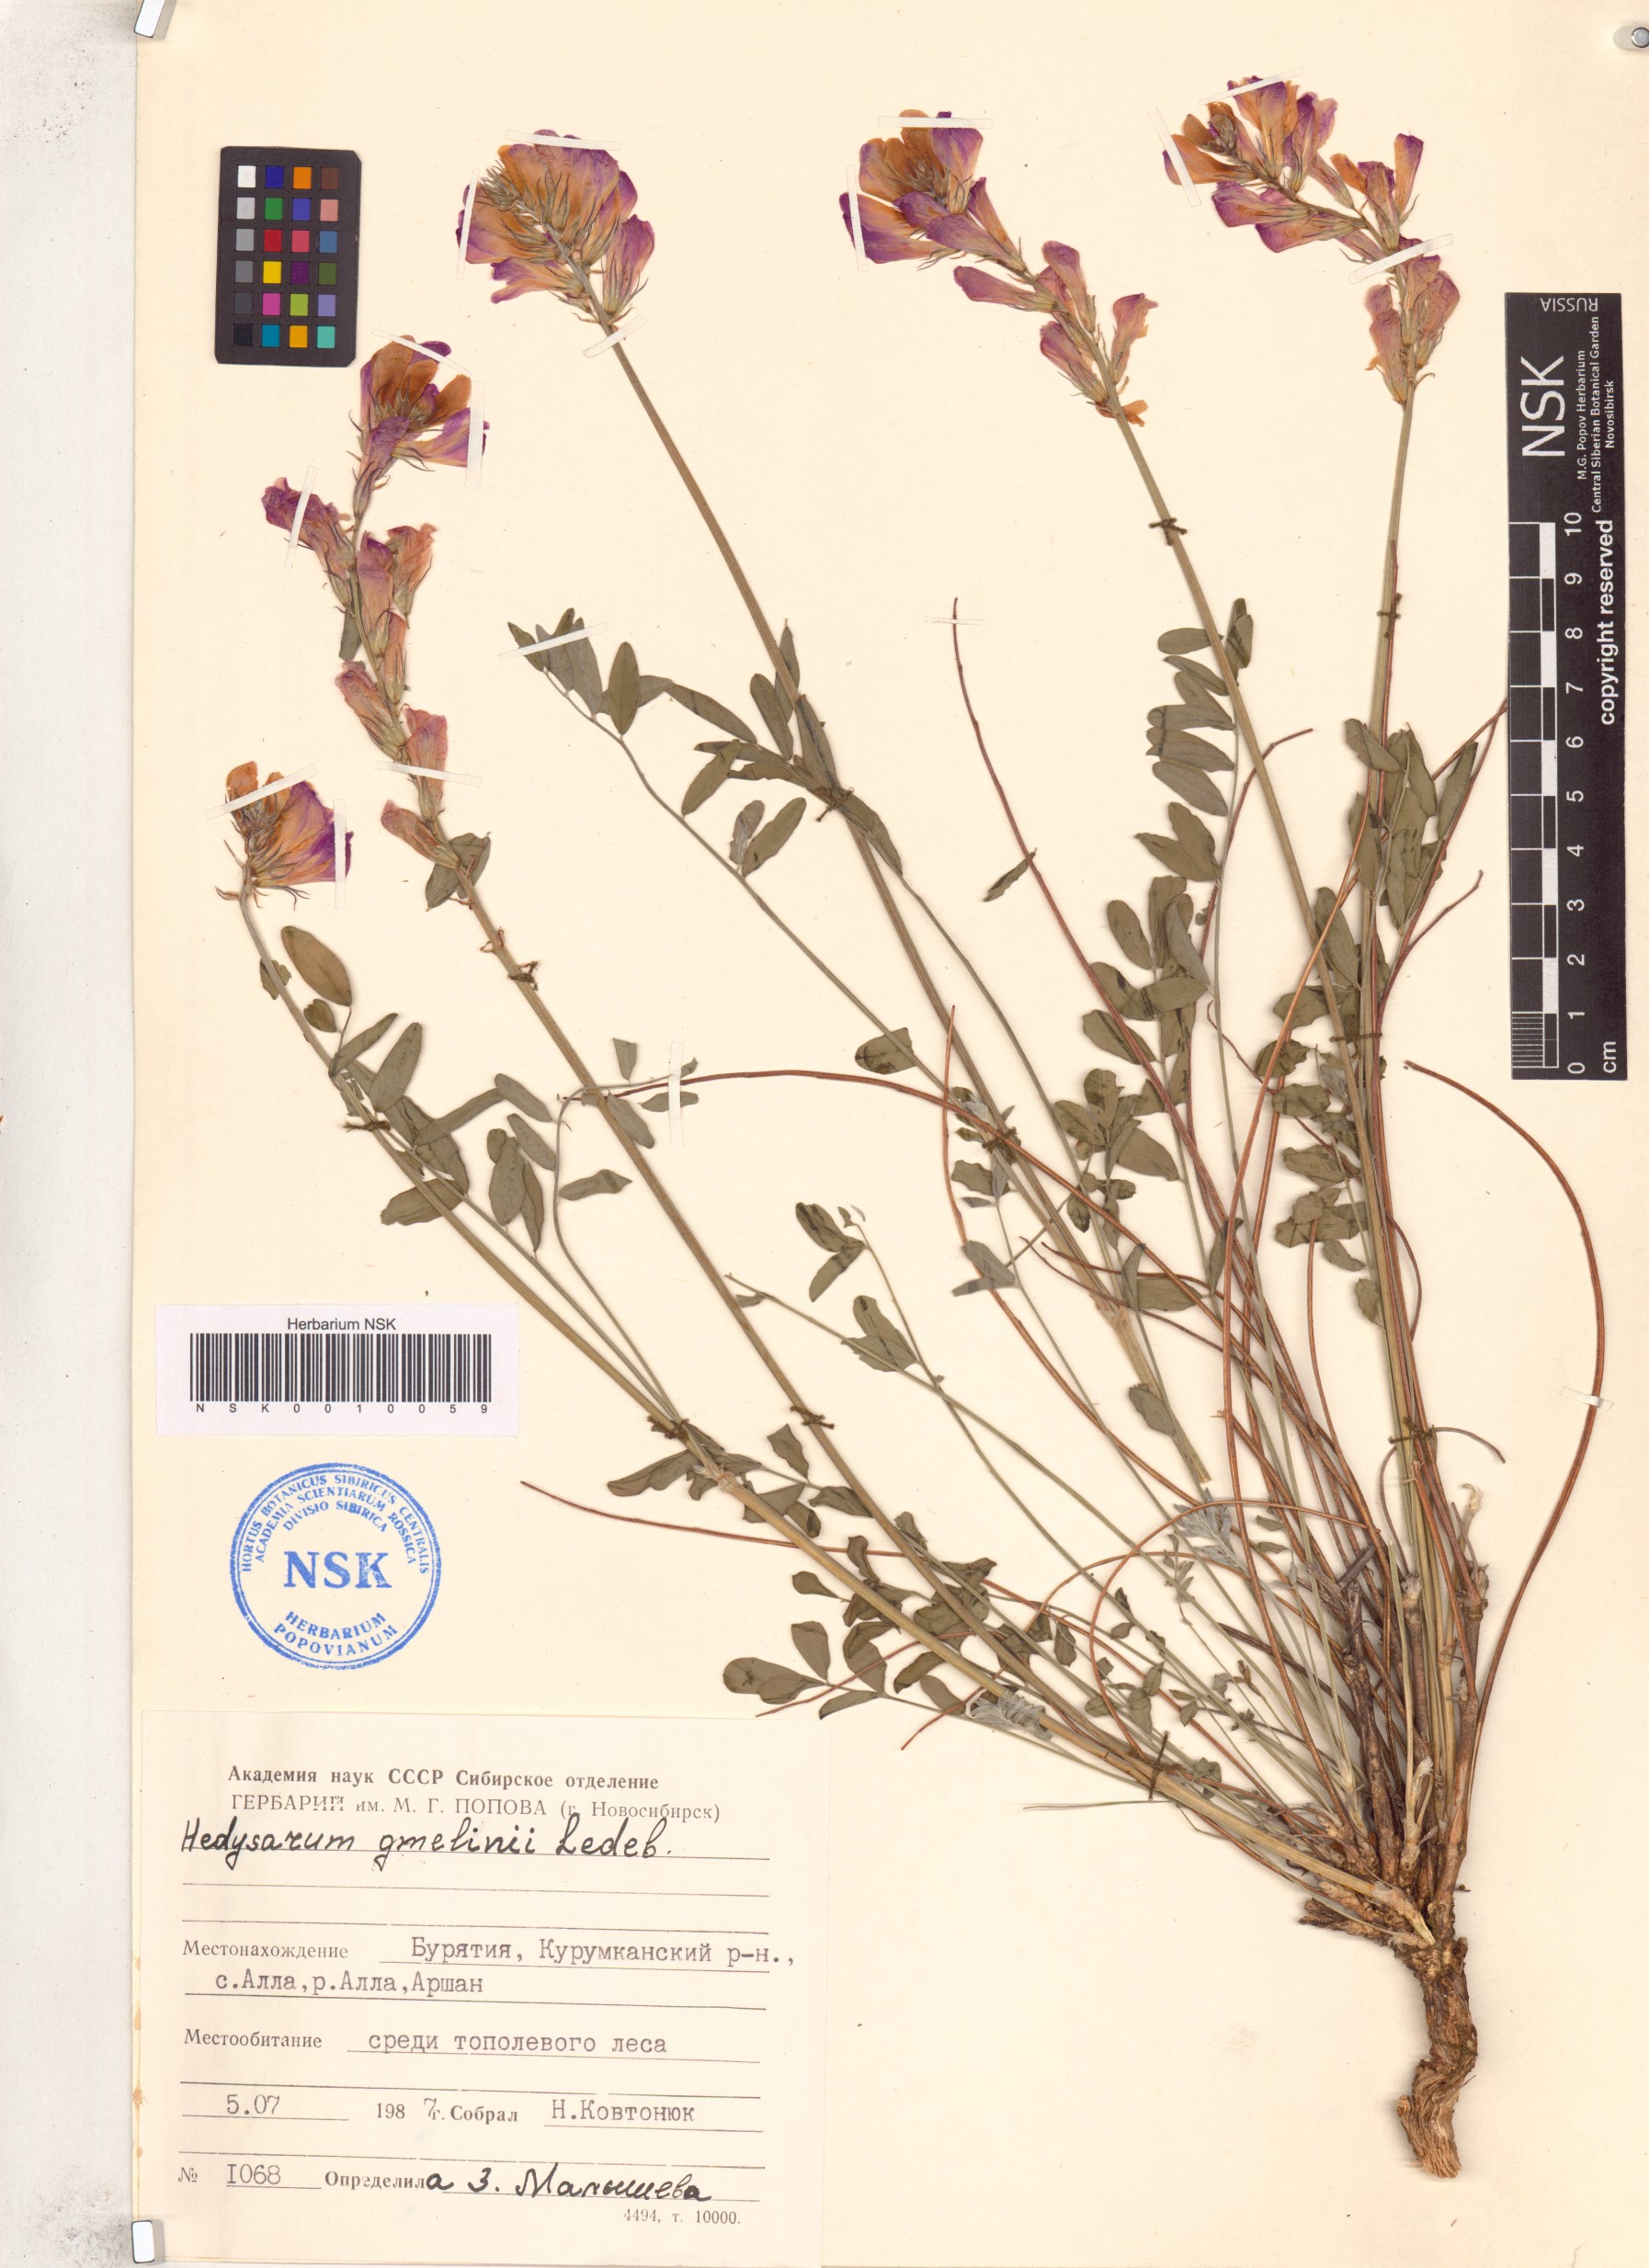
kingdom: Plantae
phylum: Tracheophyta
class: Magnoliopsida
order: Fabales
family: Fabaceae
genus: Hedysarum
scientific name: Hedysarum gmelinii
